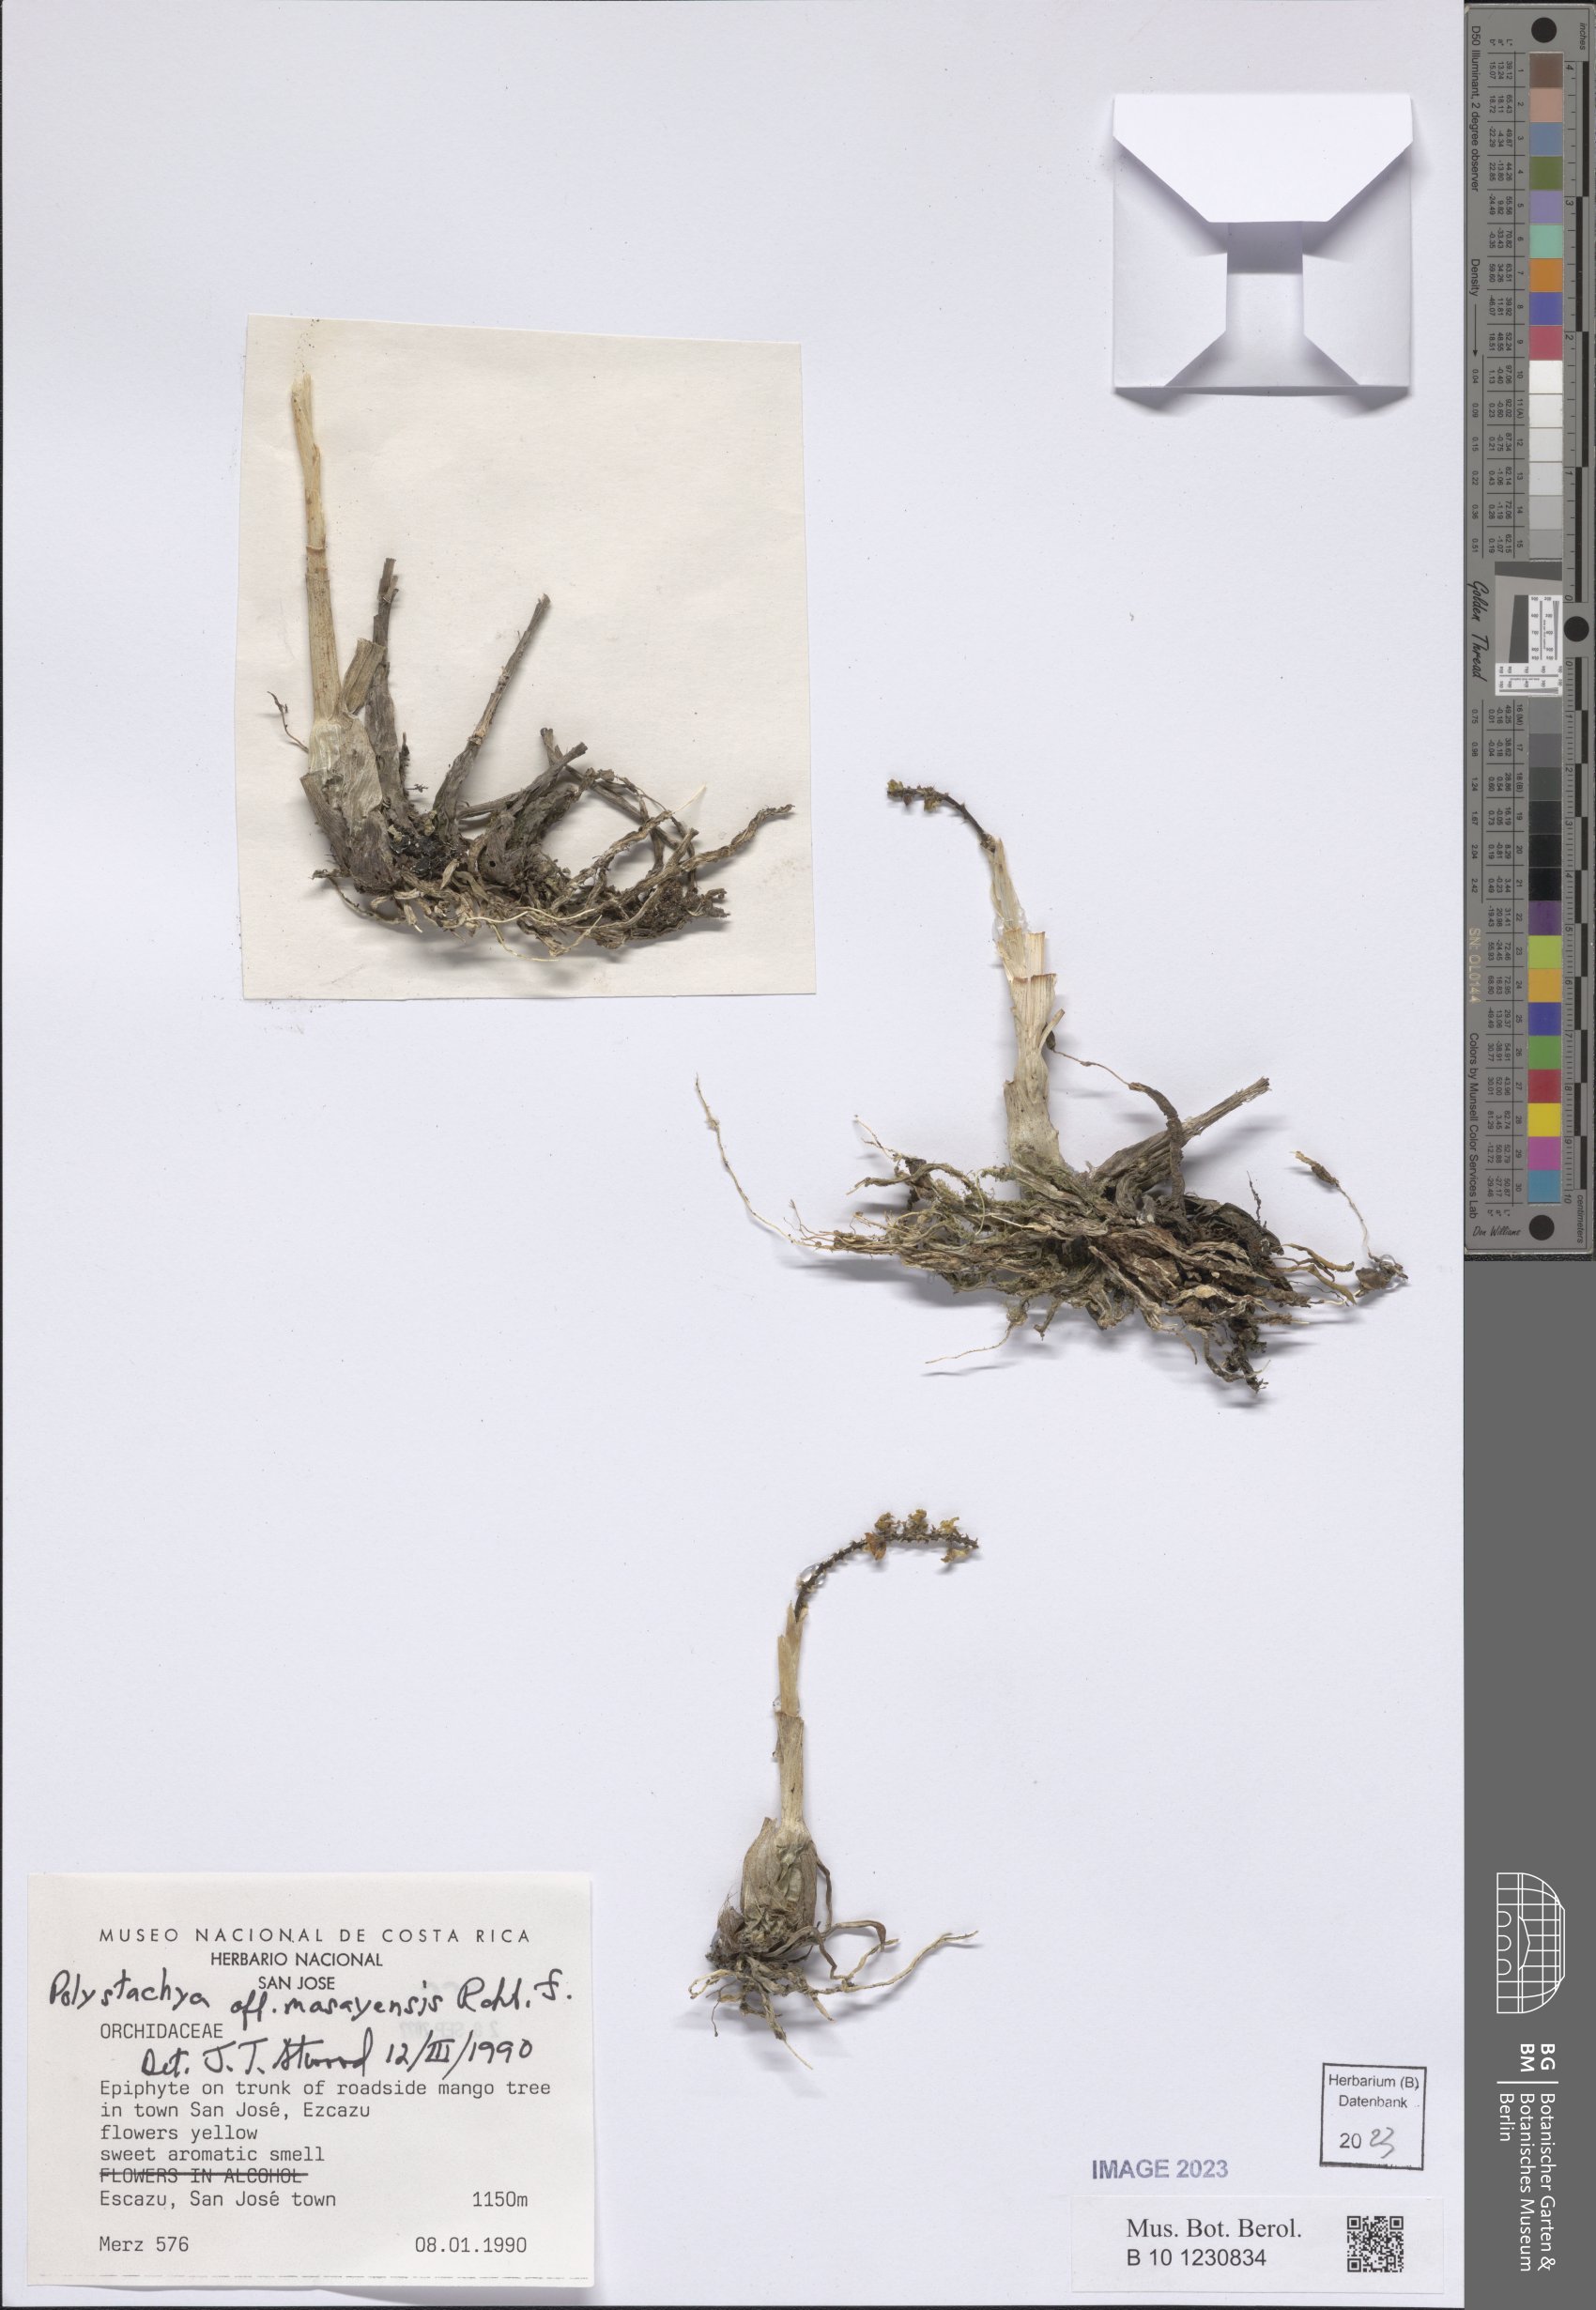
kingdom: Plantae
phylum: Tracheophyta
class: Liliopsida
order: Asparagales
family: Orchidaceae
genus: Polystachya
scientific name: Polystachya masayensis
